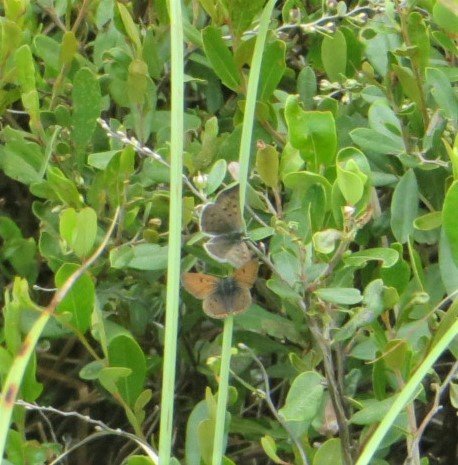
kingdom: Animalia
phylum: Arthropoda
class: Insecta
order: Lepidoptera
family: Sesiidae
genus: Sesia
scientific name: Sesia Lycaena epixanthe
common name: Bog Copper
